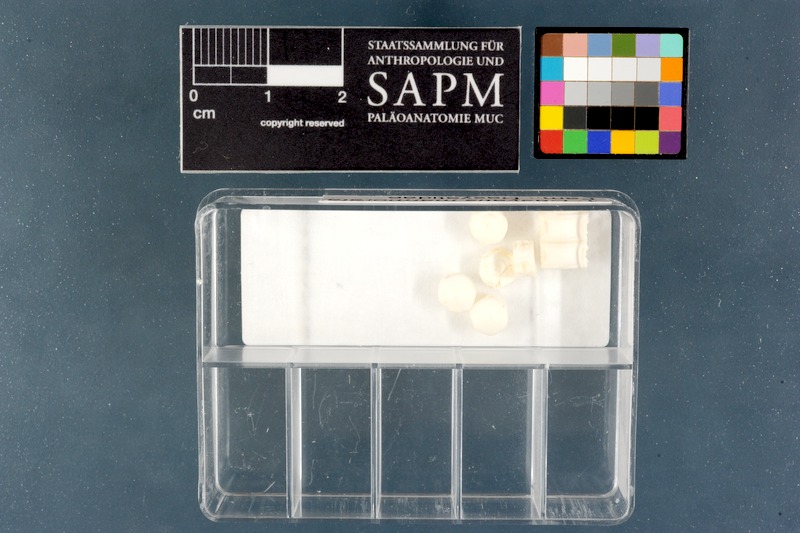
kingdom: Animalia
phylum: Chordata
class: Elasmobranchii
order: Myliobatiformes
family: Dasyatidae
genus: Dasyatis
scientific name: Dasyatis marmorata
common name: Marbled stingray
